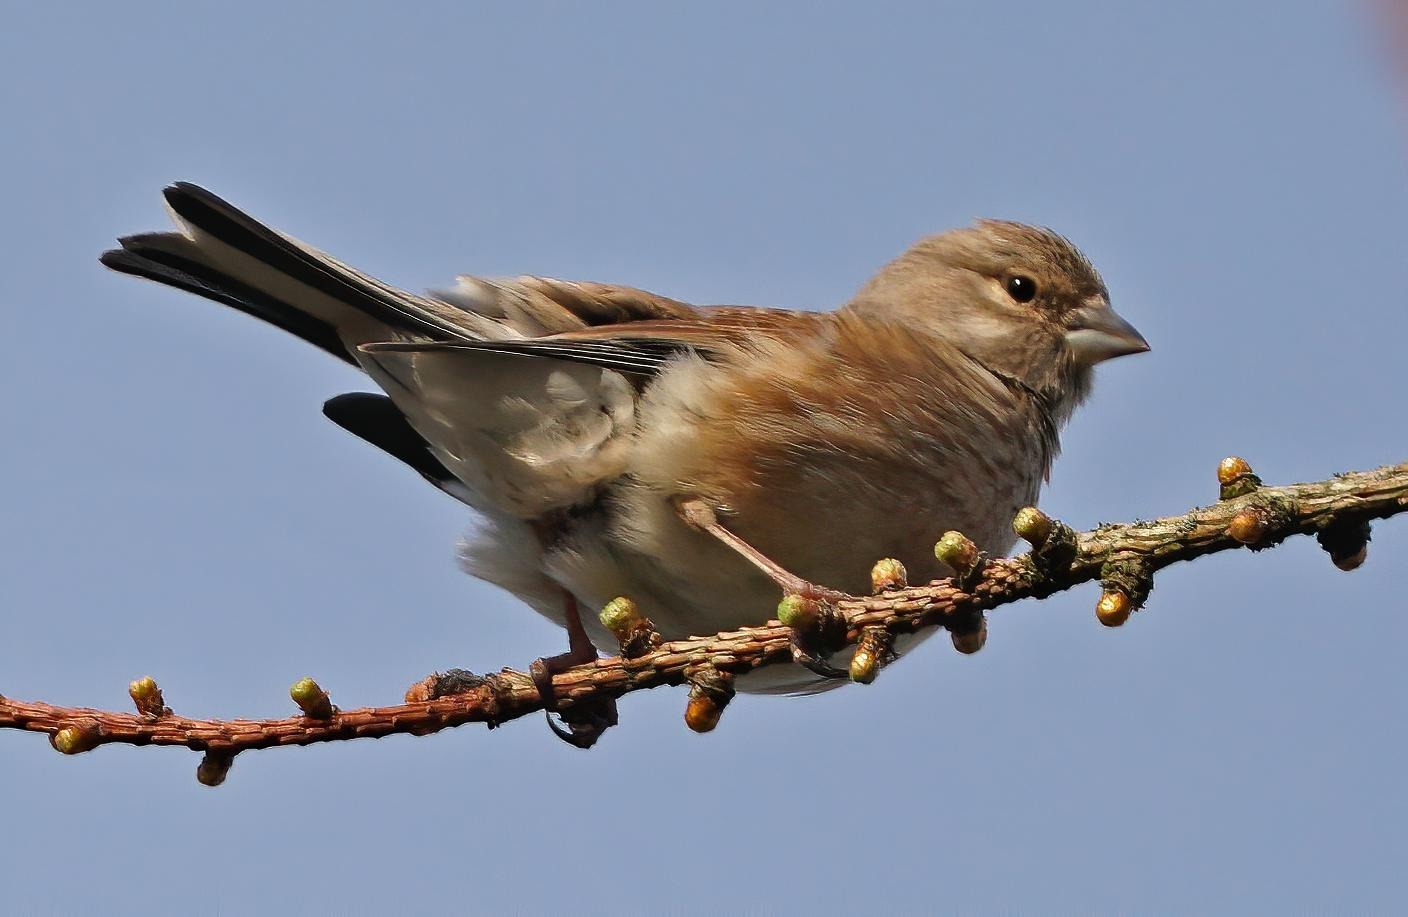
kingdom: Animalia
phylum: Chordata
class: Aves
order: Passeriformes
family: Fringillidae
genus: Linaria
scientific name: Linaria cannabina
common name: Tornirisk
